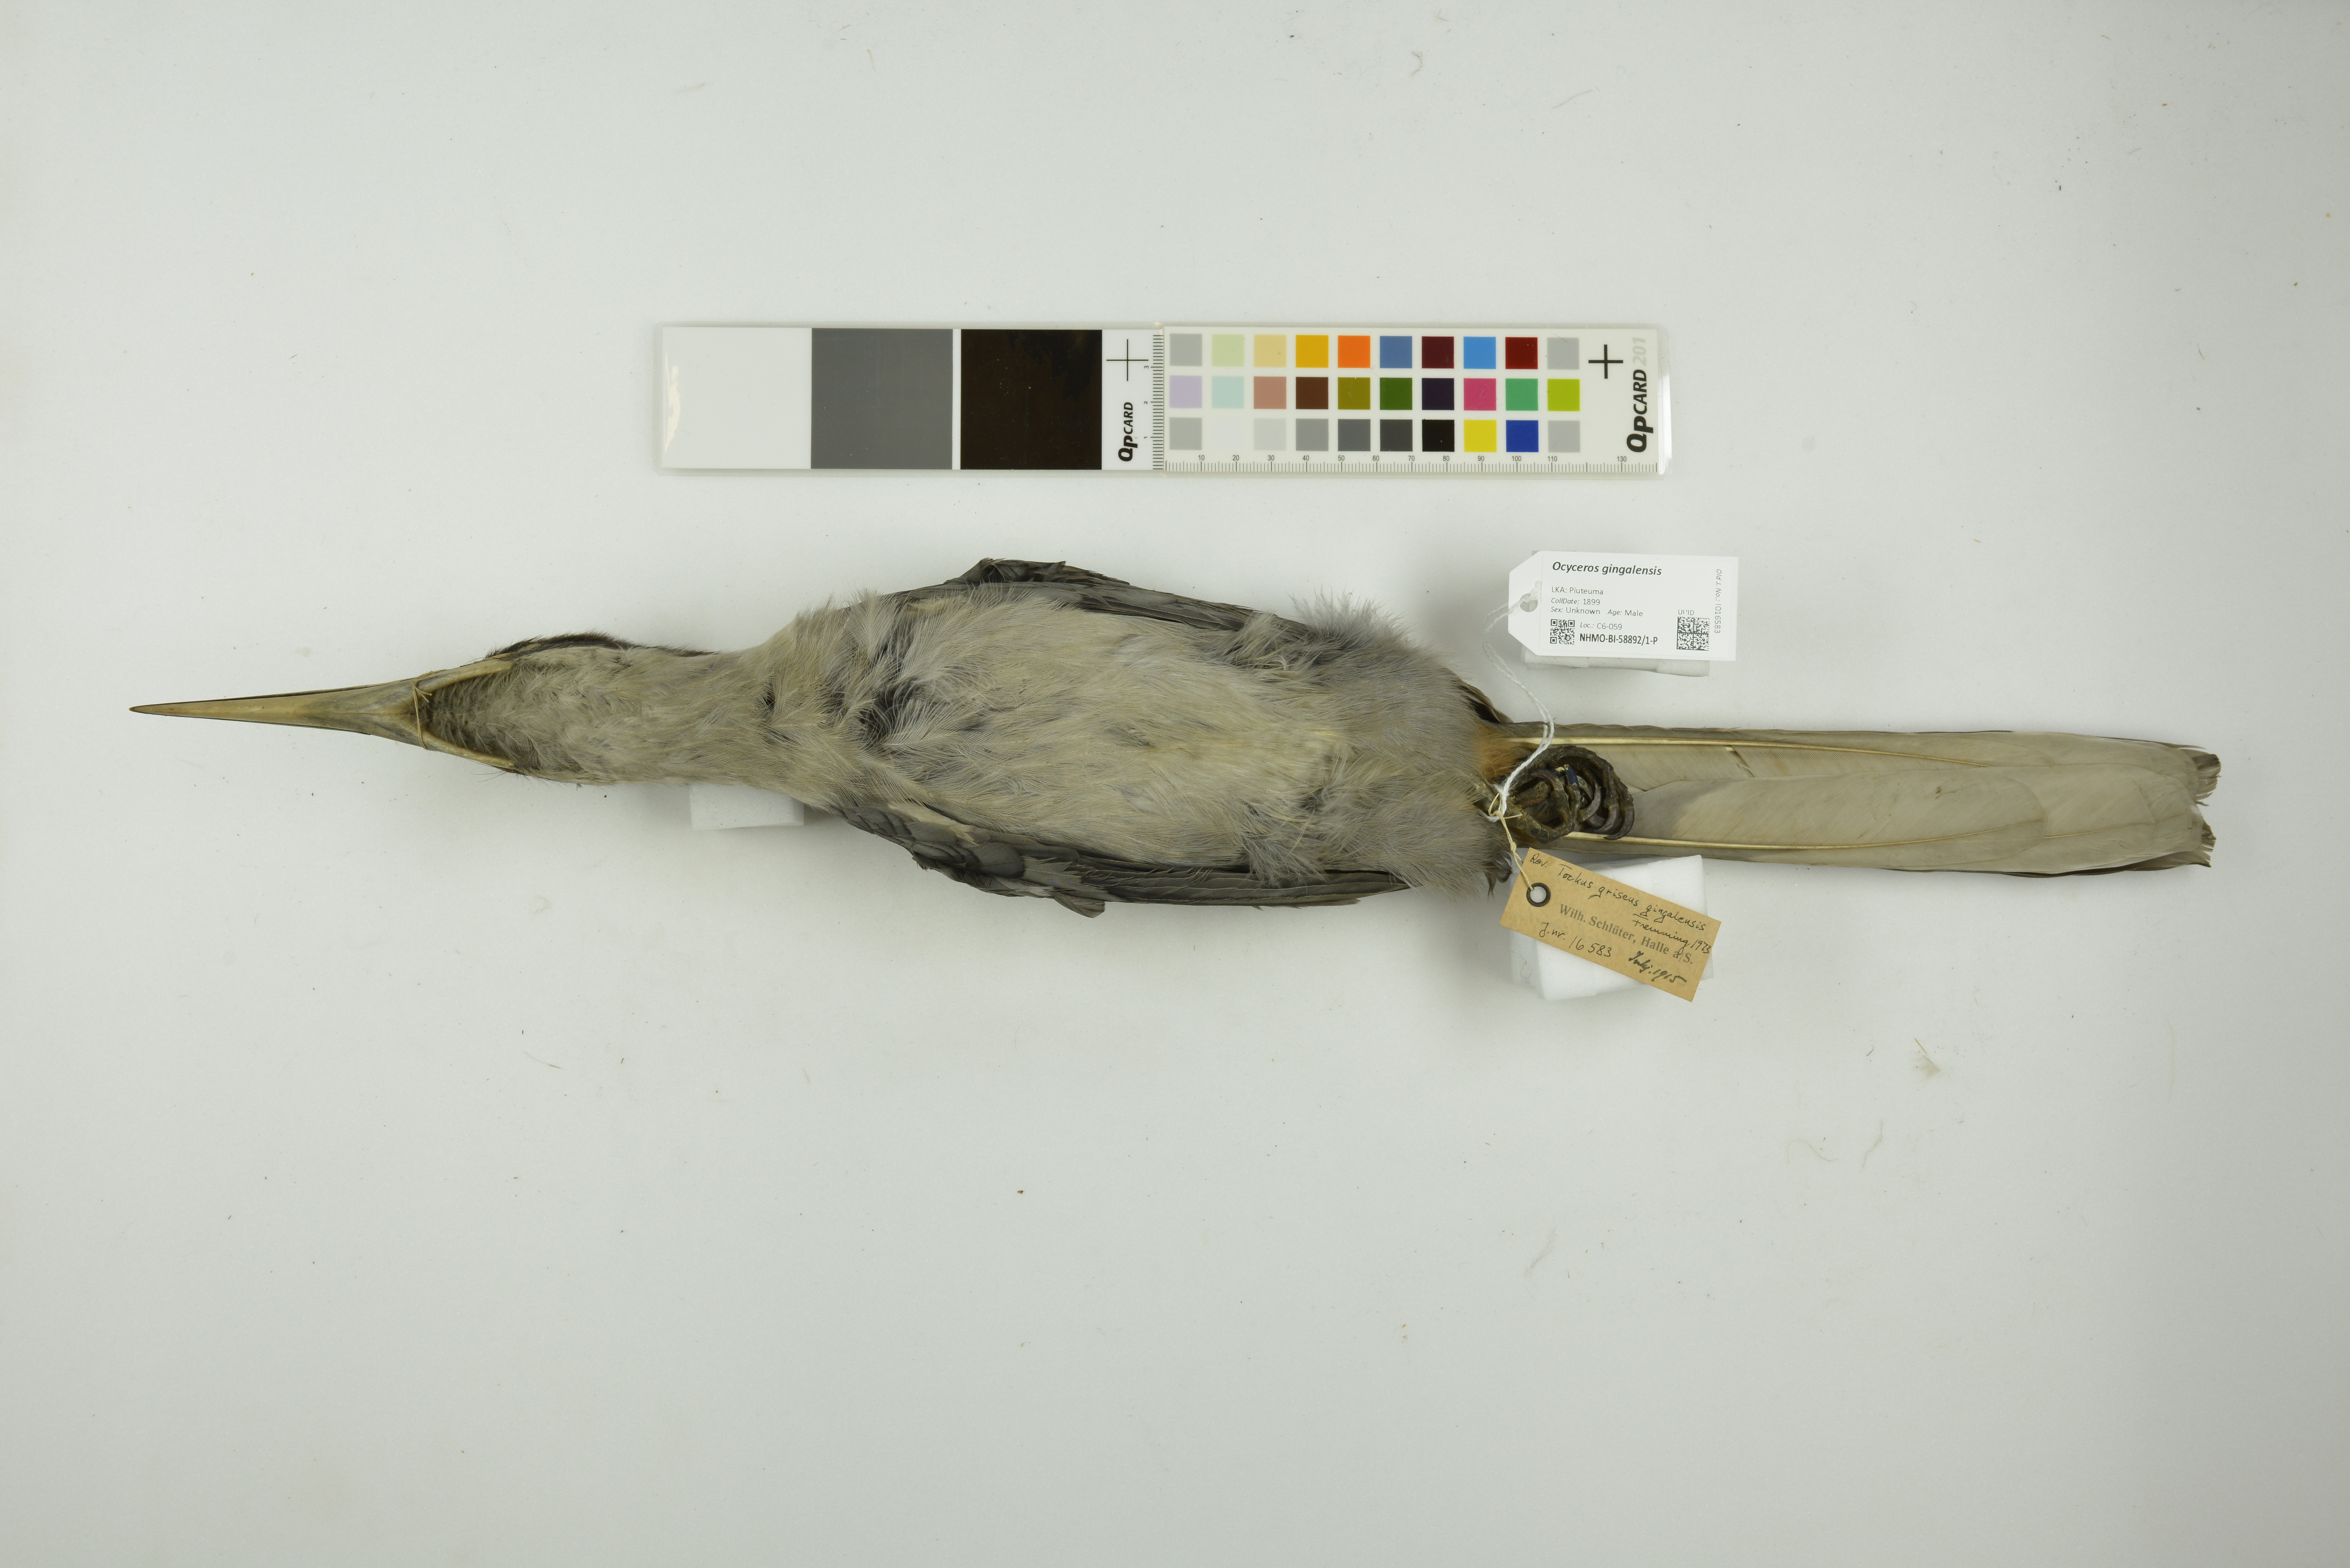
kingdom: Animalia
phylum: Chordata
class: Aves
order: Bucerotiformes
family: Bucerotidae
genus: Ocyceros
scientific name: Ocyceros gingalensis
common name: Sri lanka grey hornbill
